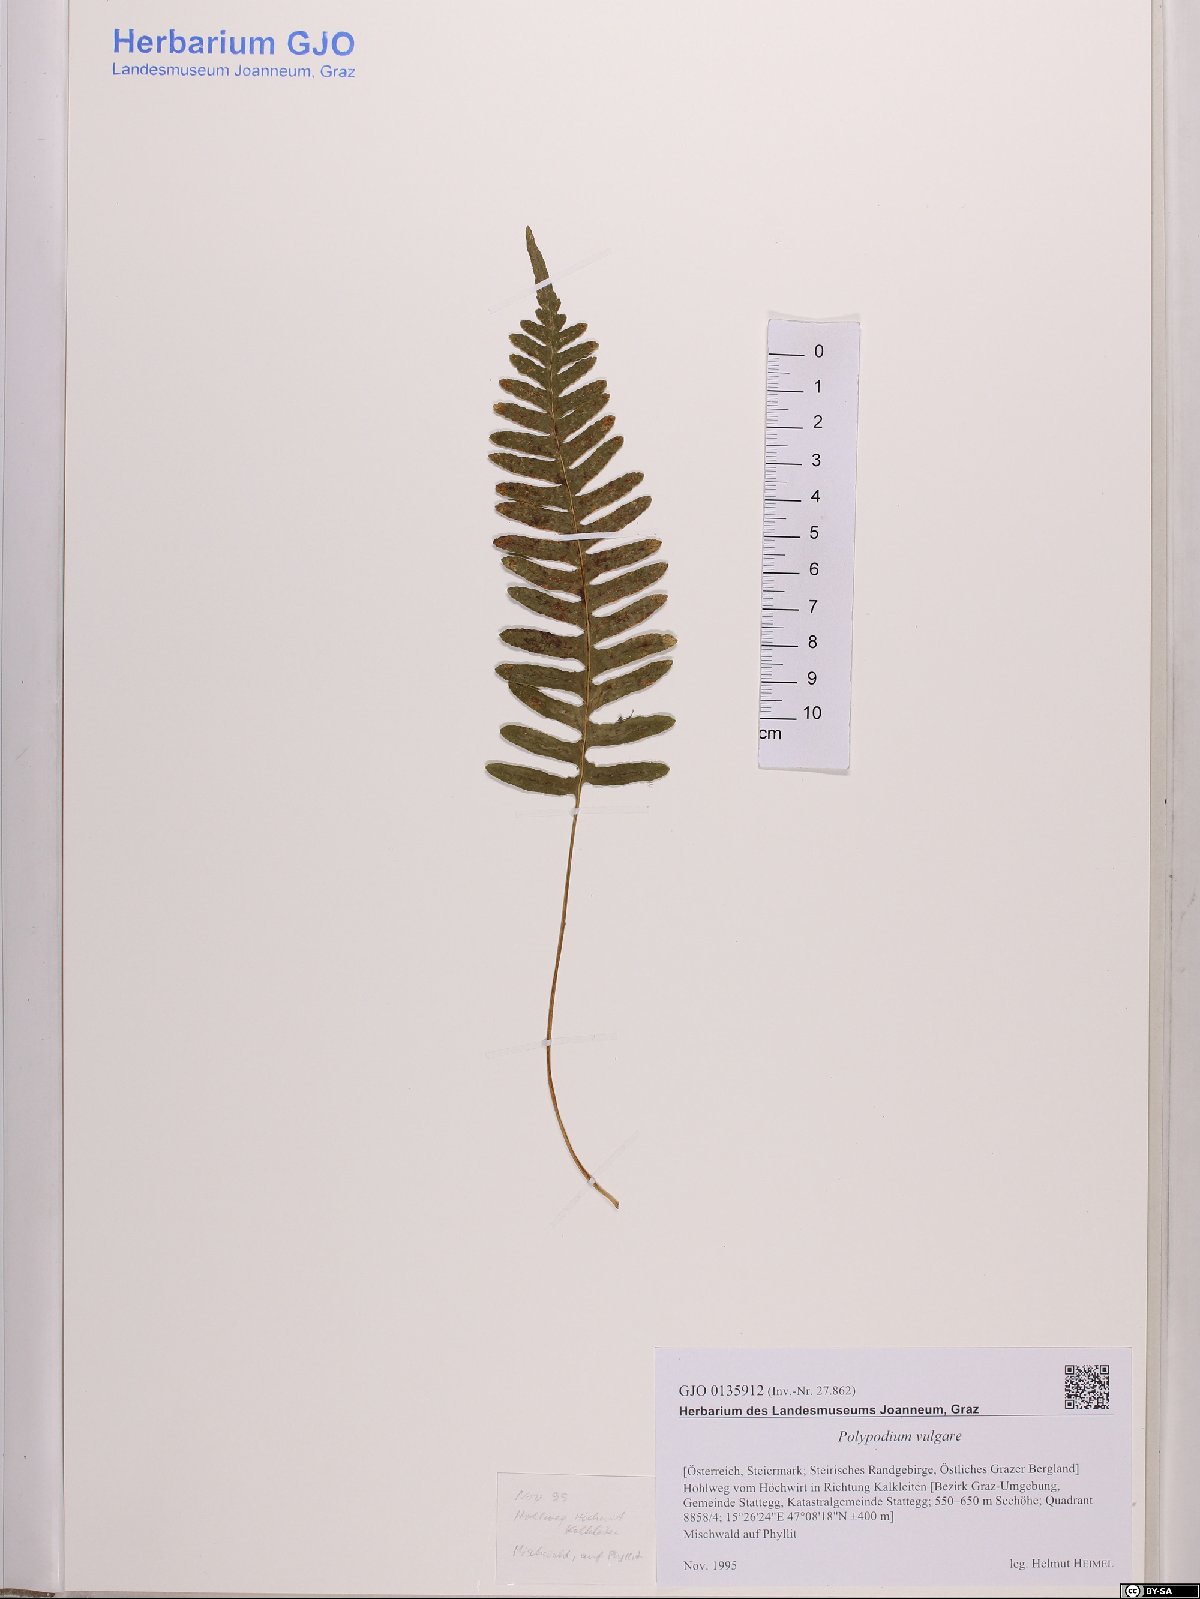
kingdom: Plantae
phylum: Tracheophyta
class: Polypodiopsida
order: Polypodiales
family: Polypodiaceae
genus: Polypodium
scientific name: Polypodium vulgare
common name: Common polypody
